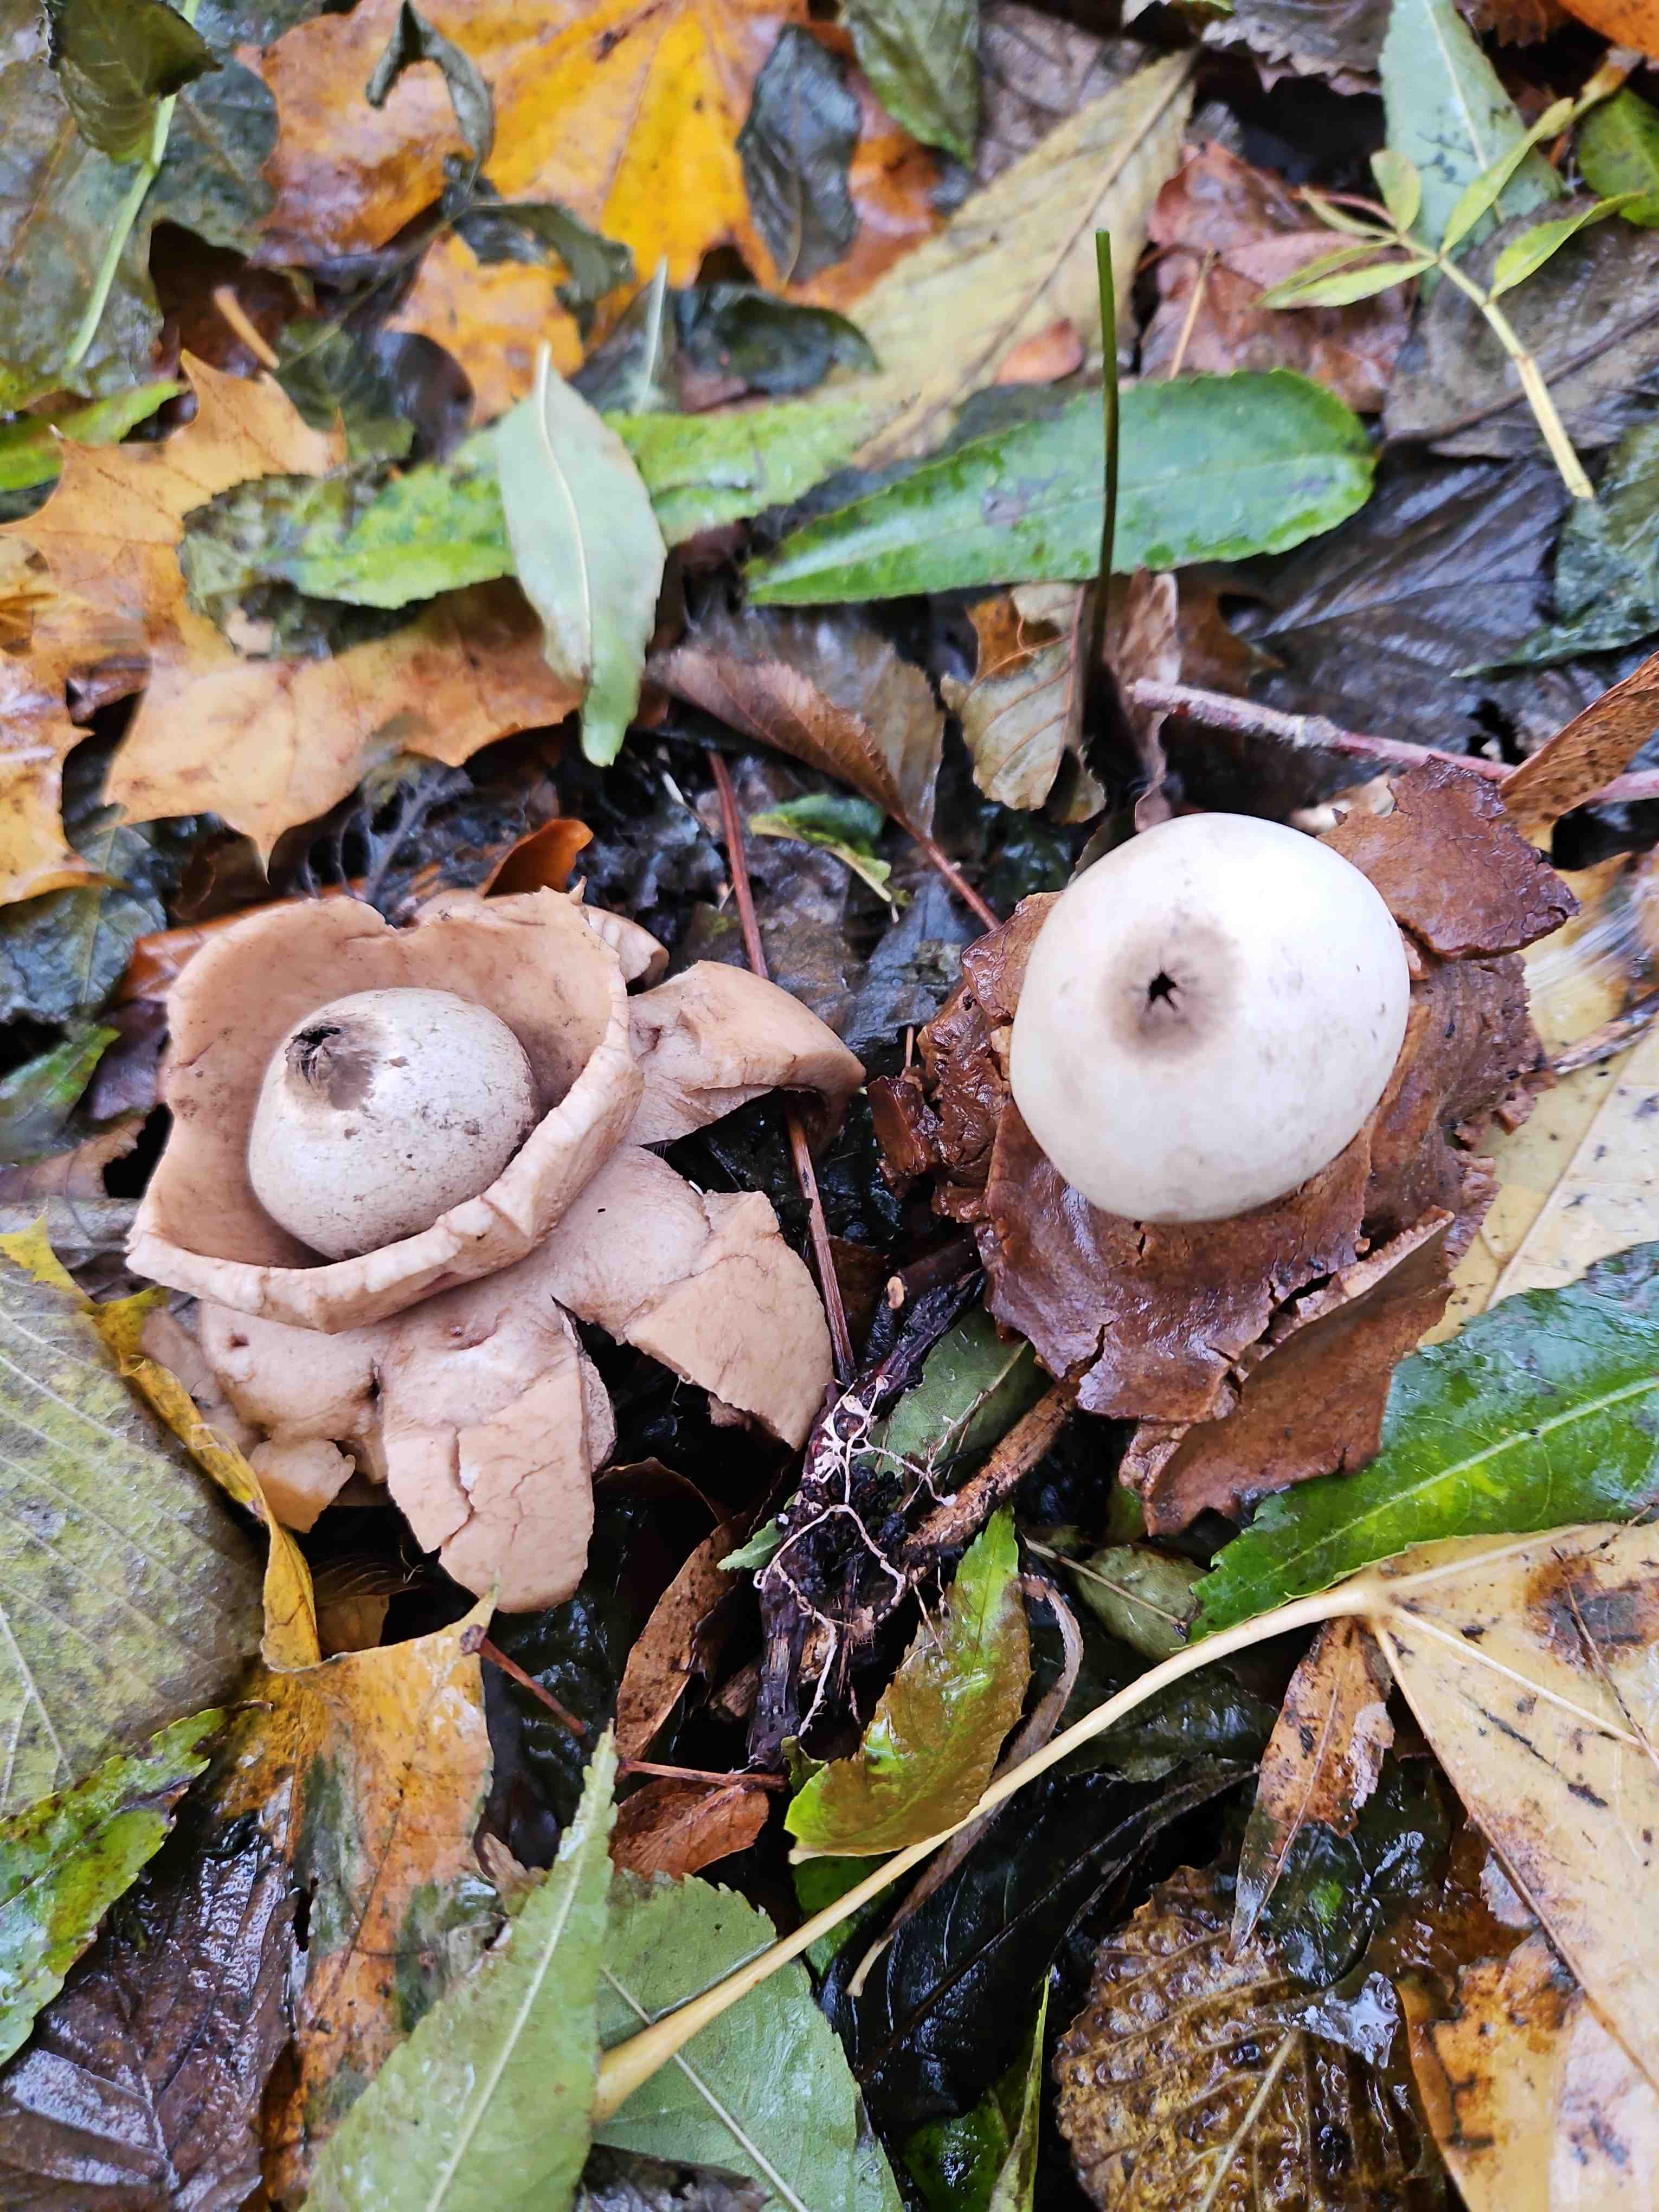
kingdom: Fungi
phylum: Basidiomycota
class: Agaricomycetes
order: Geastrales
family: Geastraceae
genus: Geastrum
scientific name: Geastrum michelianum
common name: kødet stjernebold
